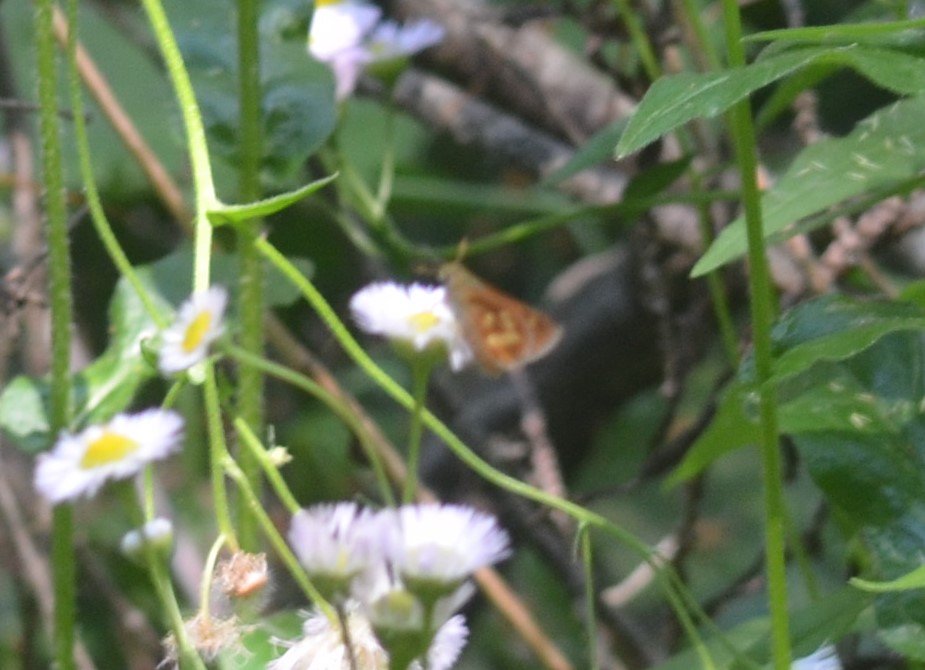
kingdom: Animalia
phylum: Arthropoda
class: Insecta
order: Lepidoptera
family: Hesperiidae
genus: Polites
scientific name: Polites
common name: Long Dash Skipper
